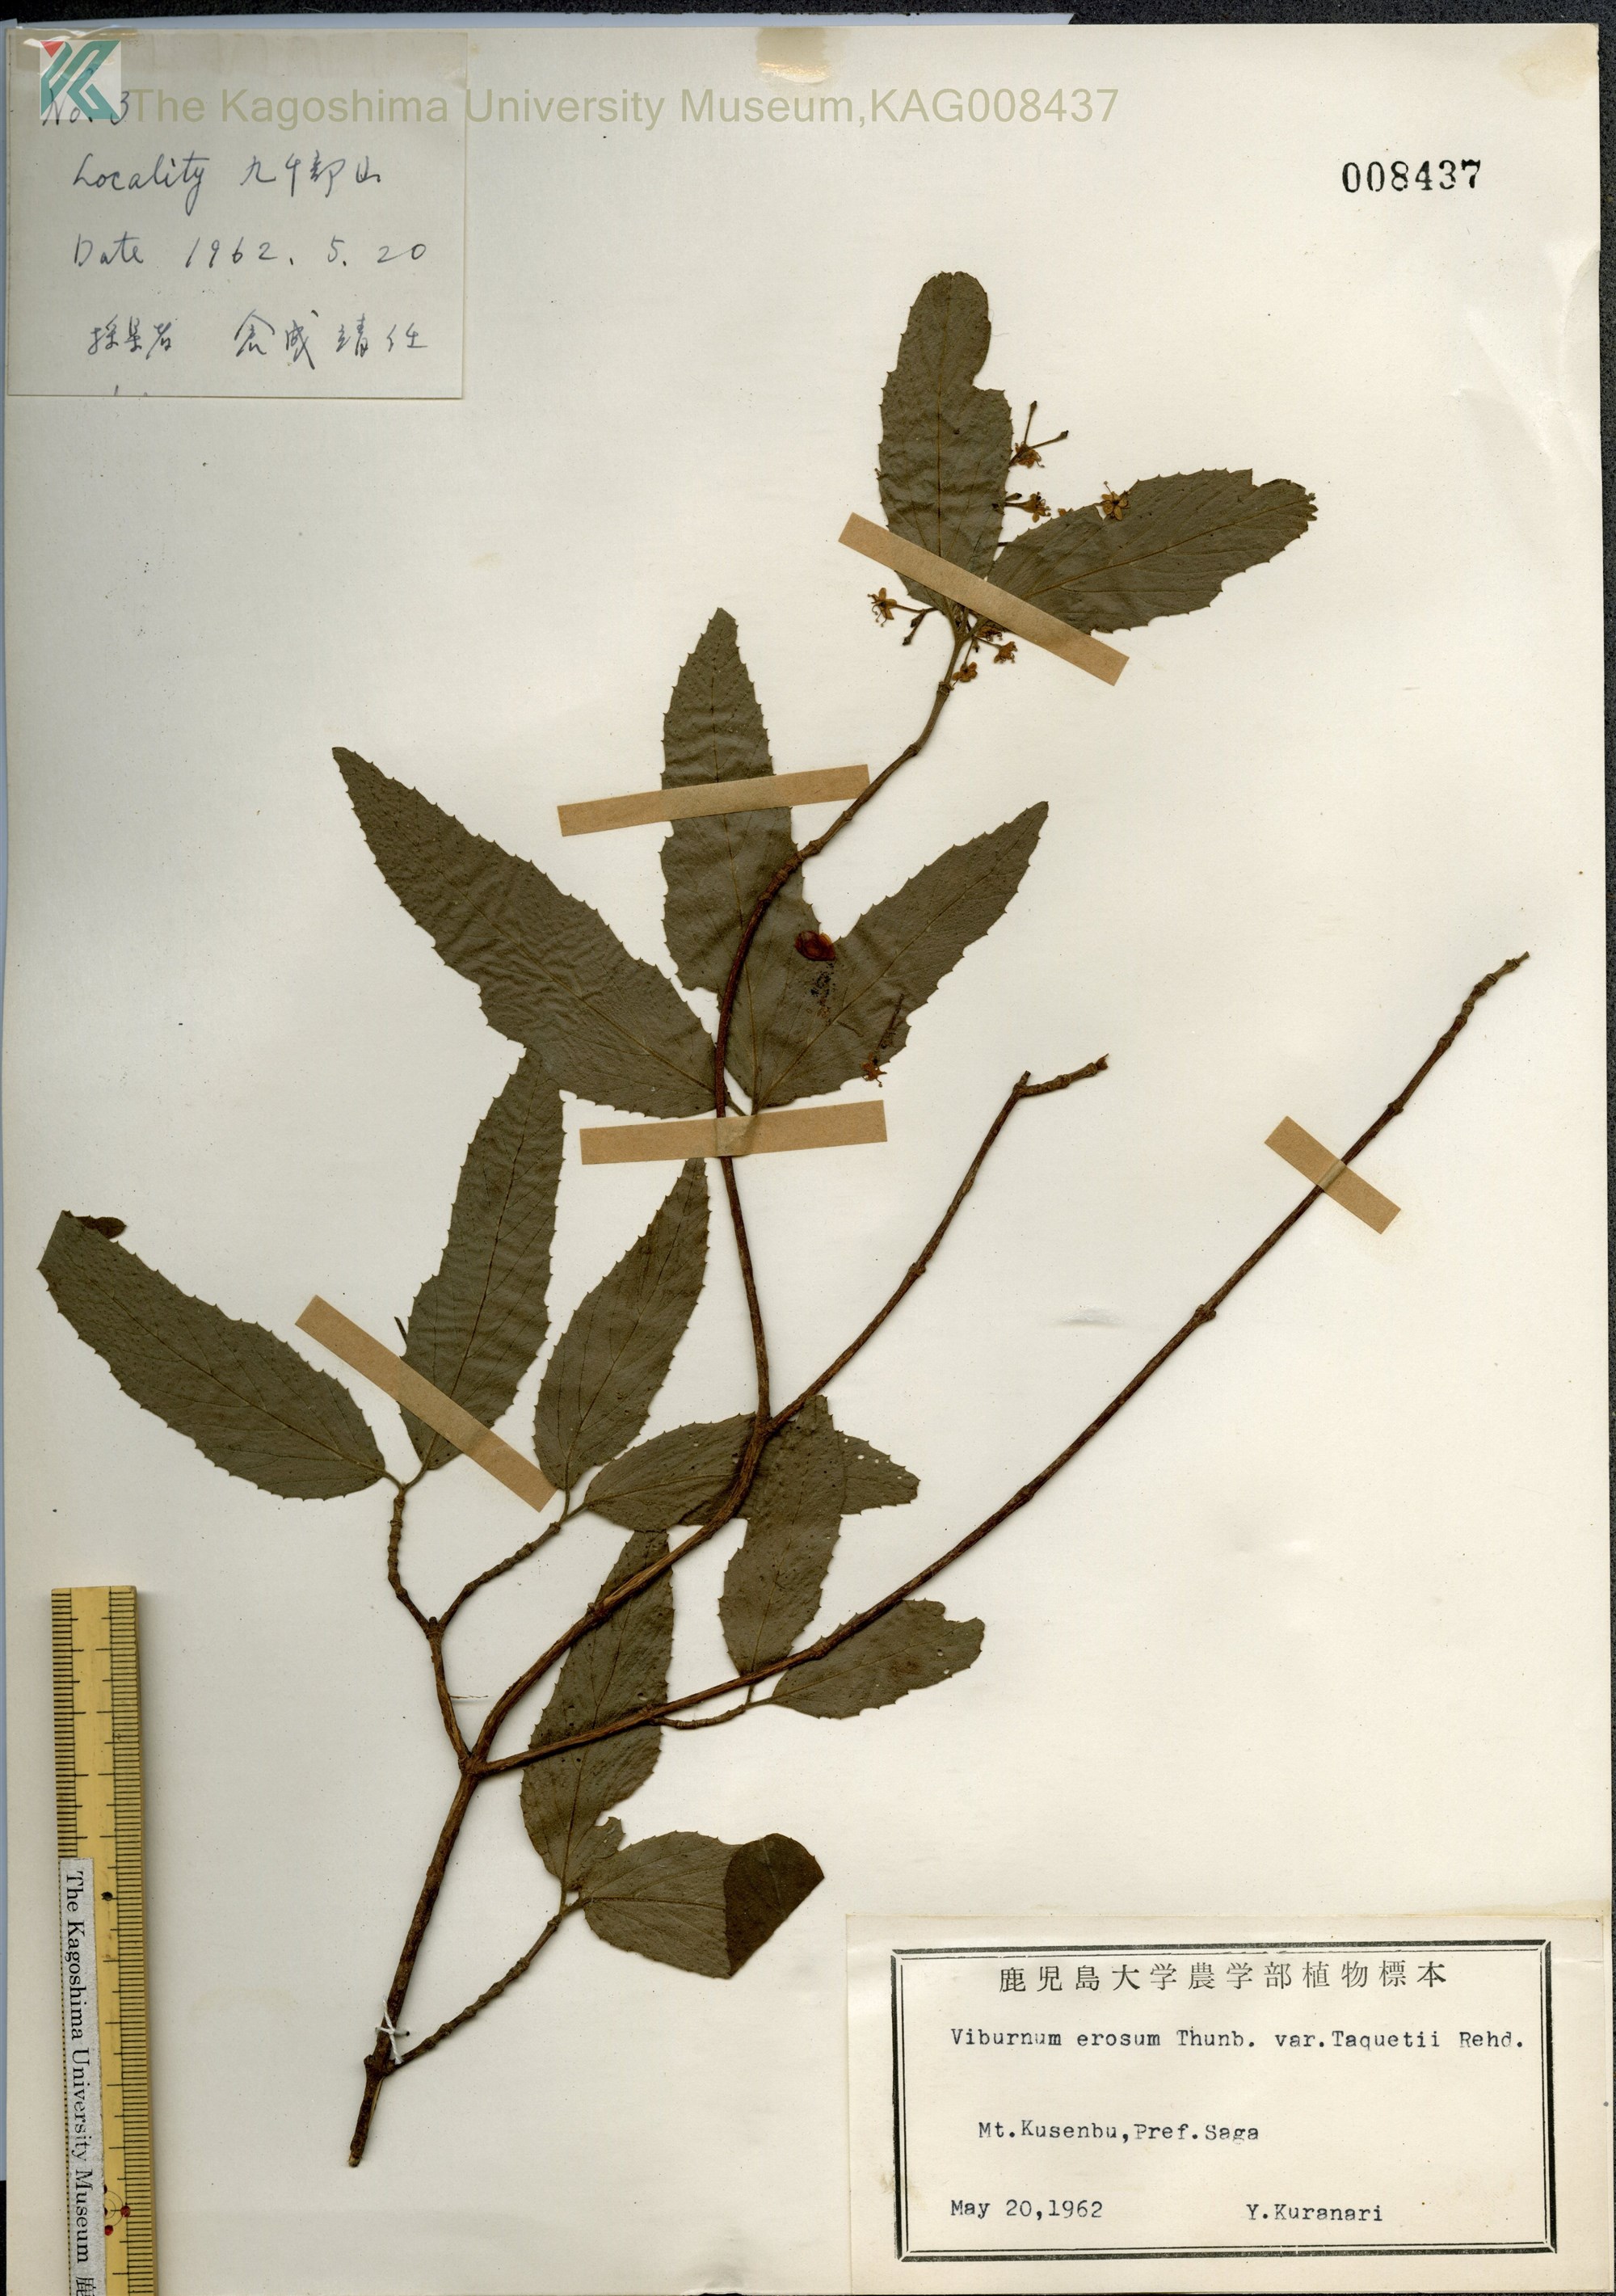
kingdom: Plantae
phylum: Tracheophyta
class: Magnoliopsida
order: Dipsacales
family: Viburnaceae
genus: Viburnum
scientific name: Viburnum erosum
